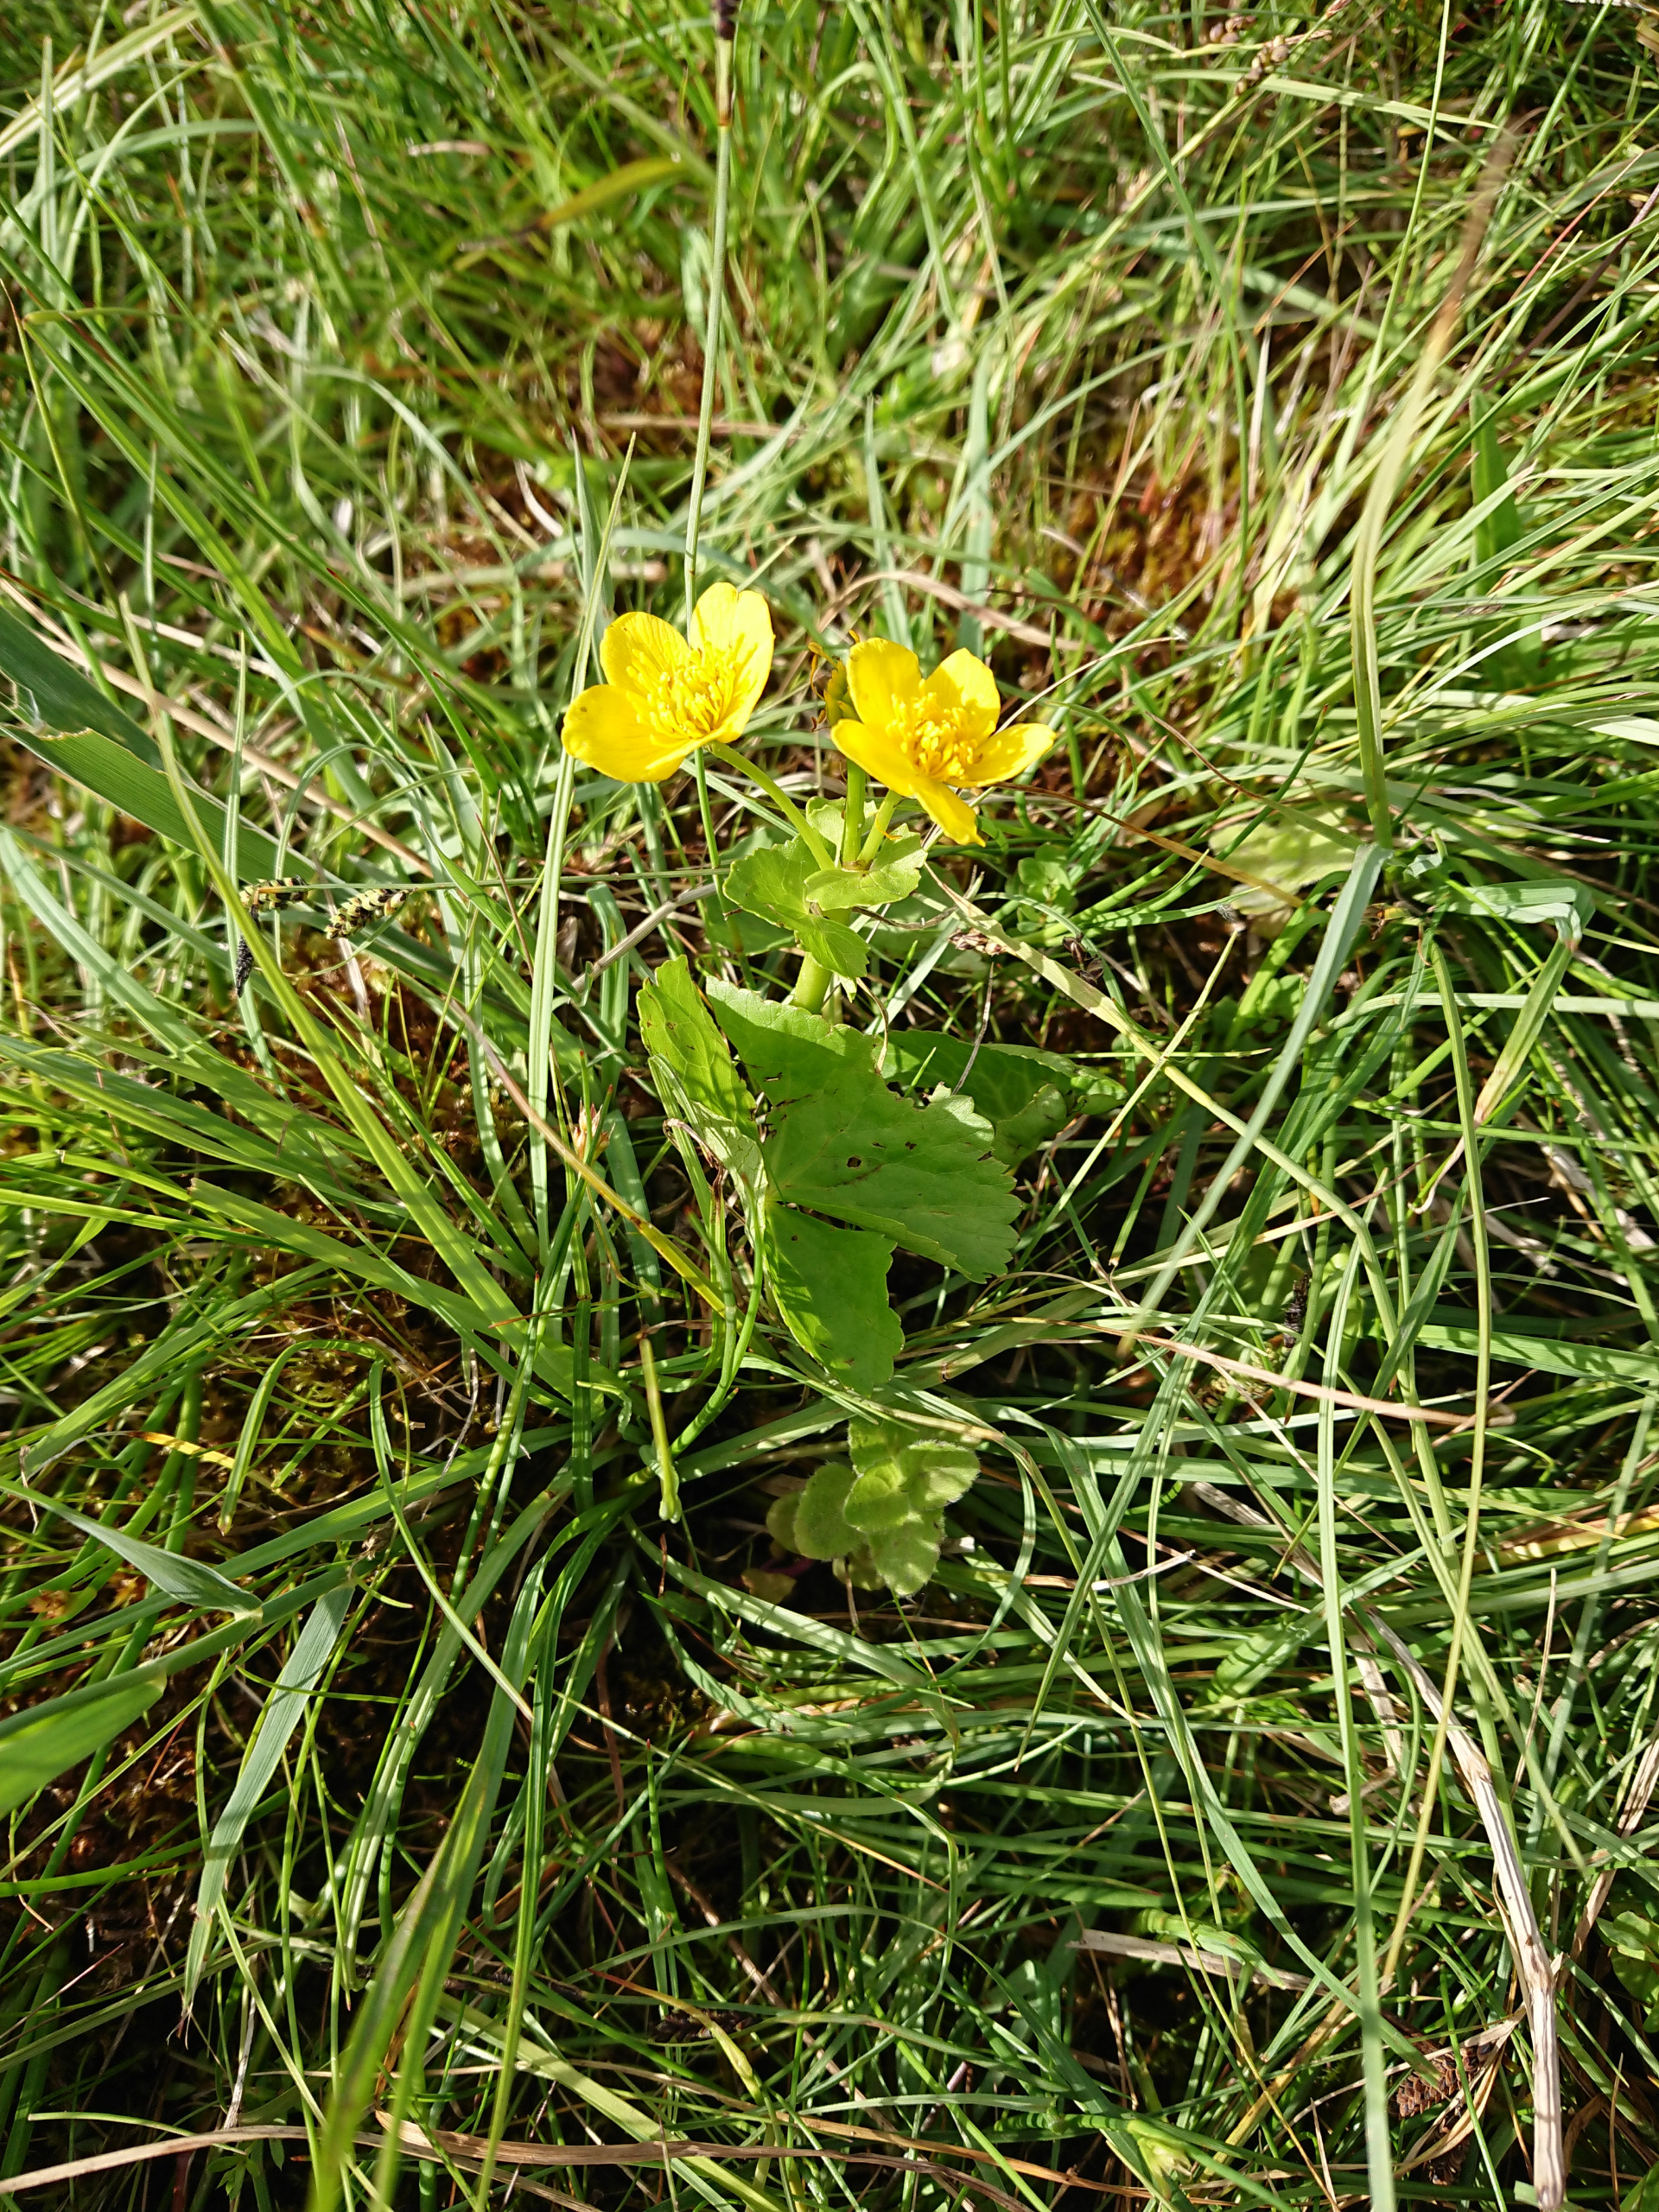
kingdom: Plantae
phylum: Tracheophyta
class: Magnoliopsida
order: Ranunculales
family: Ranunculaceae
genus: Caltha
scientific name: Caltha palustris
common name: Eng-kabbeleje (underart)
